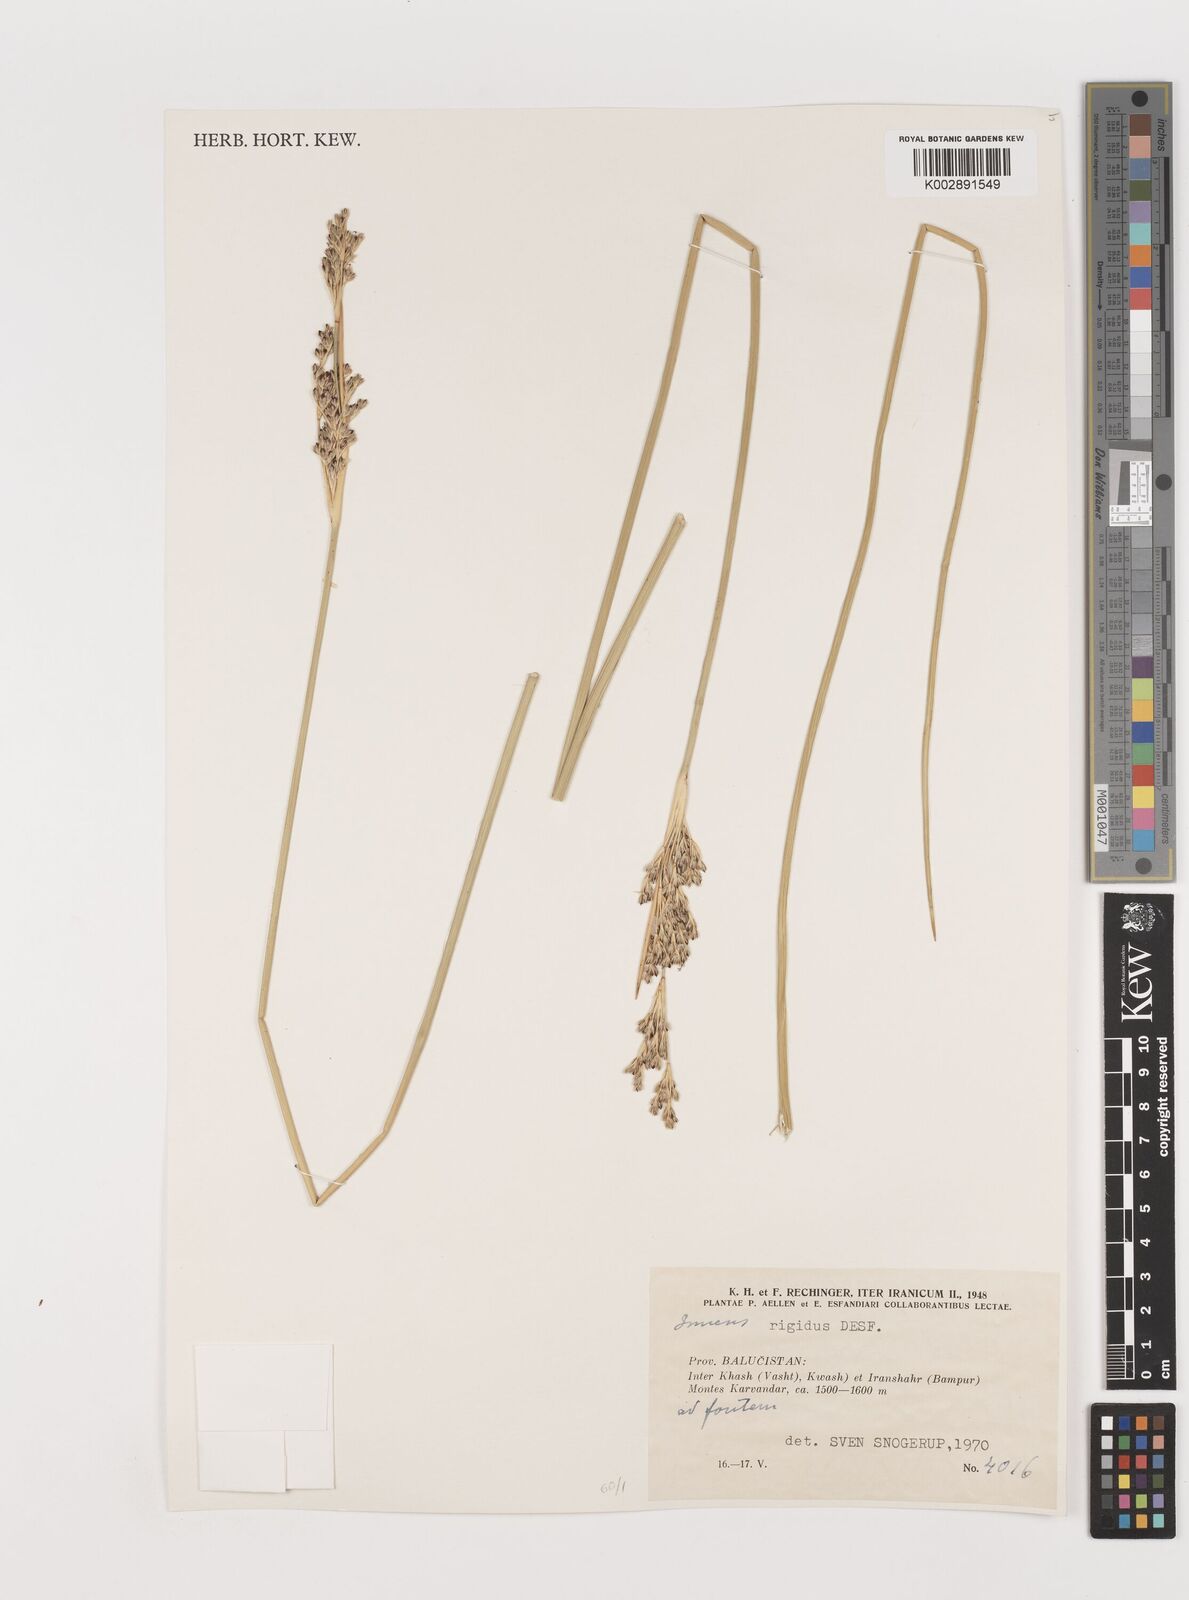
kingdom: Plantae
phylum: Tracheophyta
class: Liliopsida
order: Poales
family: Juncaceae
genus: Juncus
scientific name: Juncus rigidus
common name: Hard sea rush
